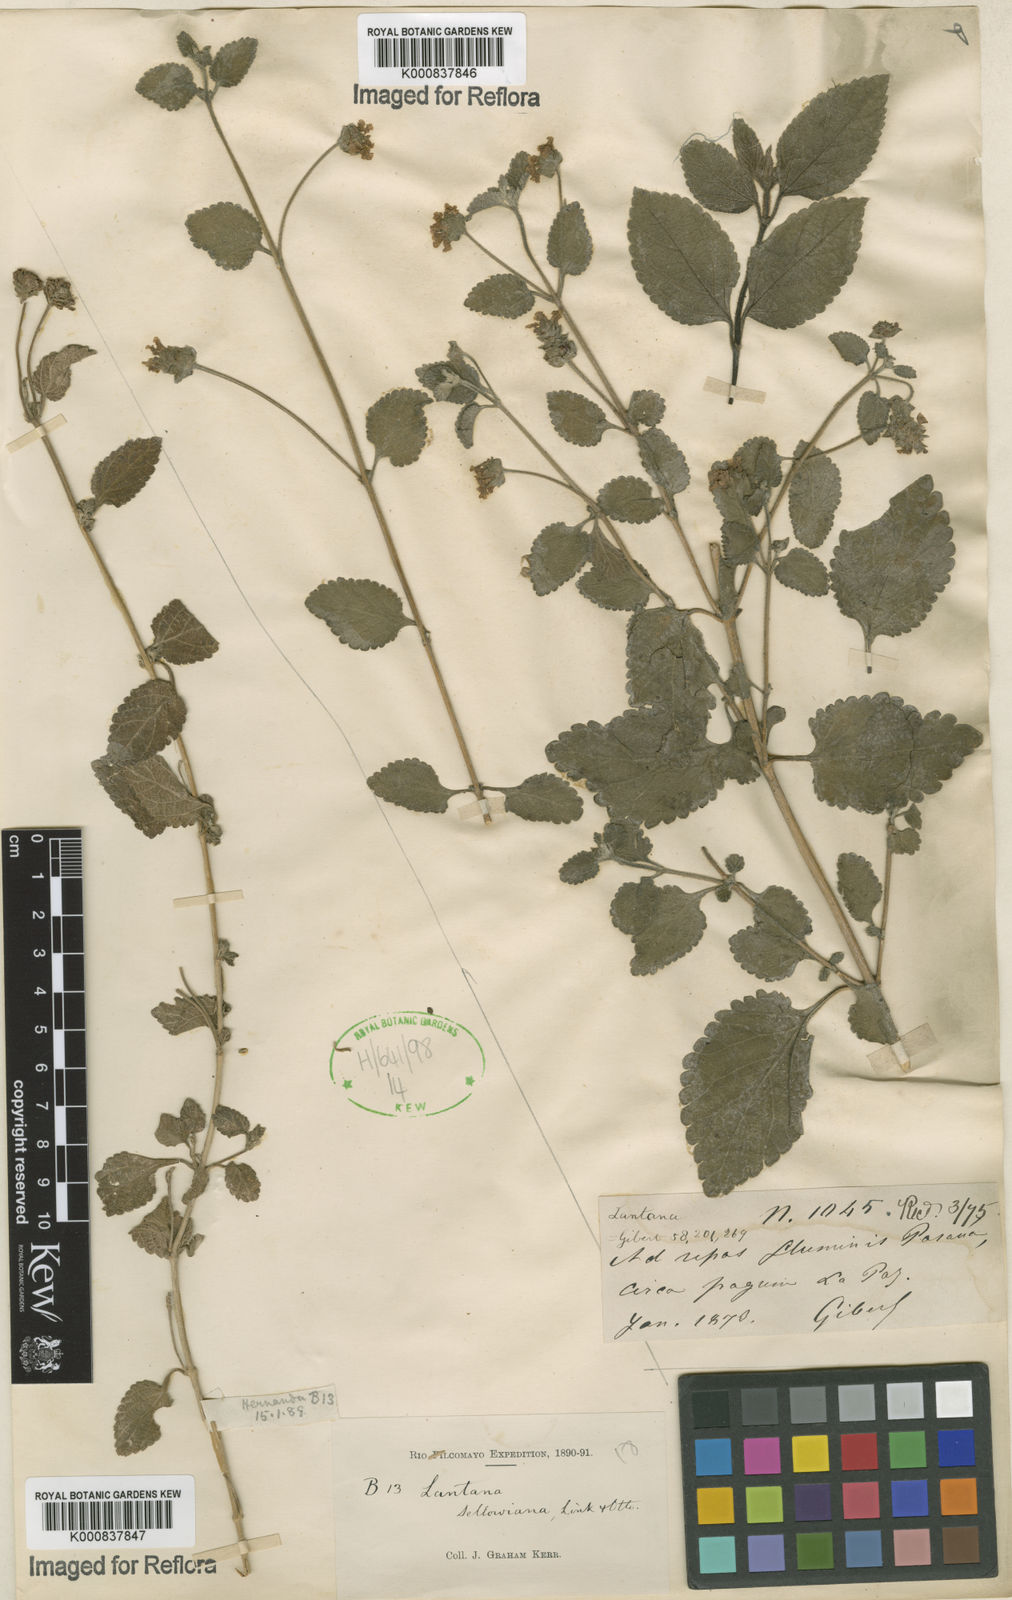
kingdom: Plantae
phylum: Tracheophyta
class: Magnoliopsida
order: Lamiales
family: Verbenaceae
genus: Lantana
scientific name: Lantana montevidensis
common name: Trailing shrubverbena
